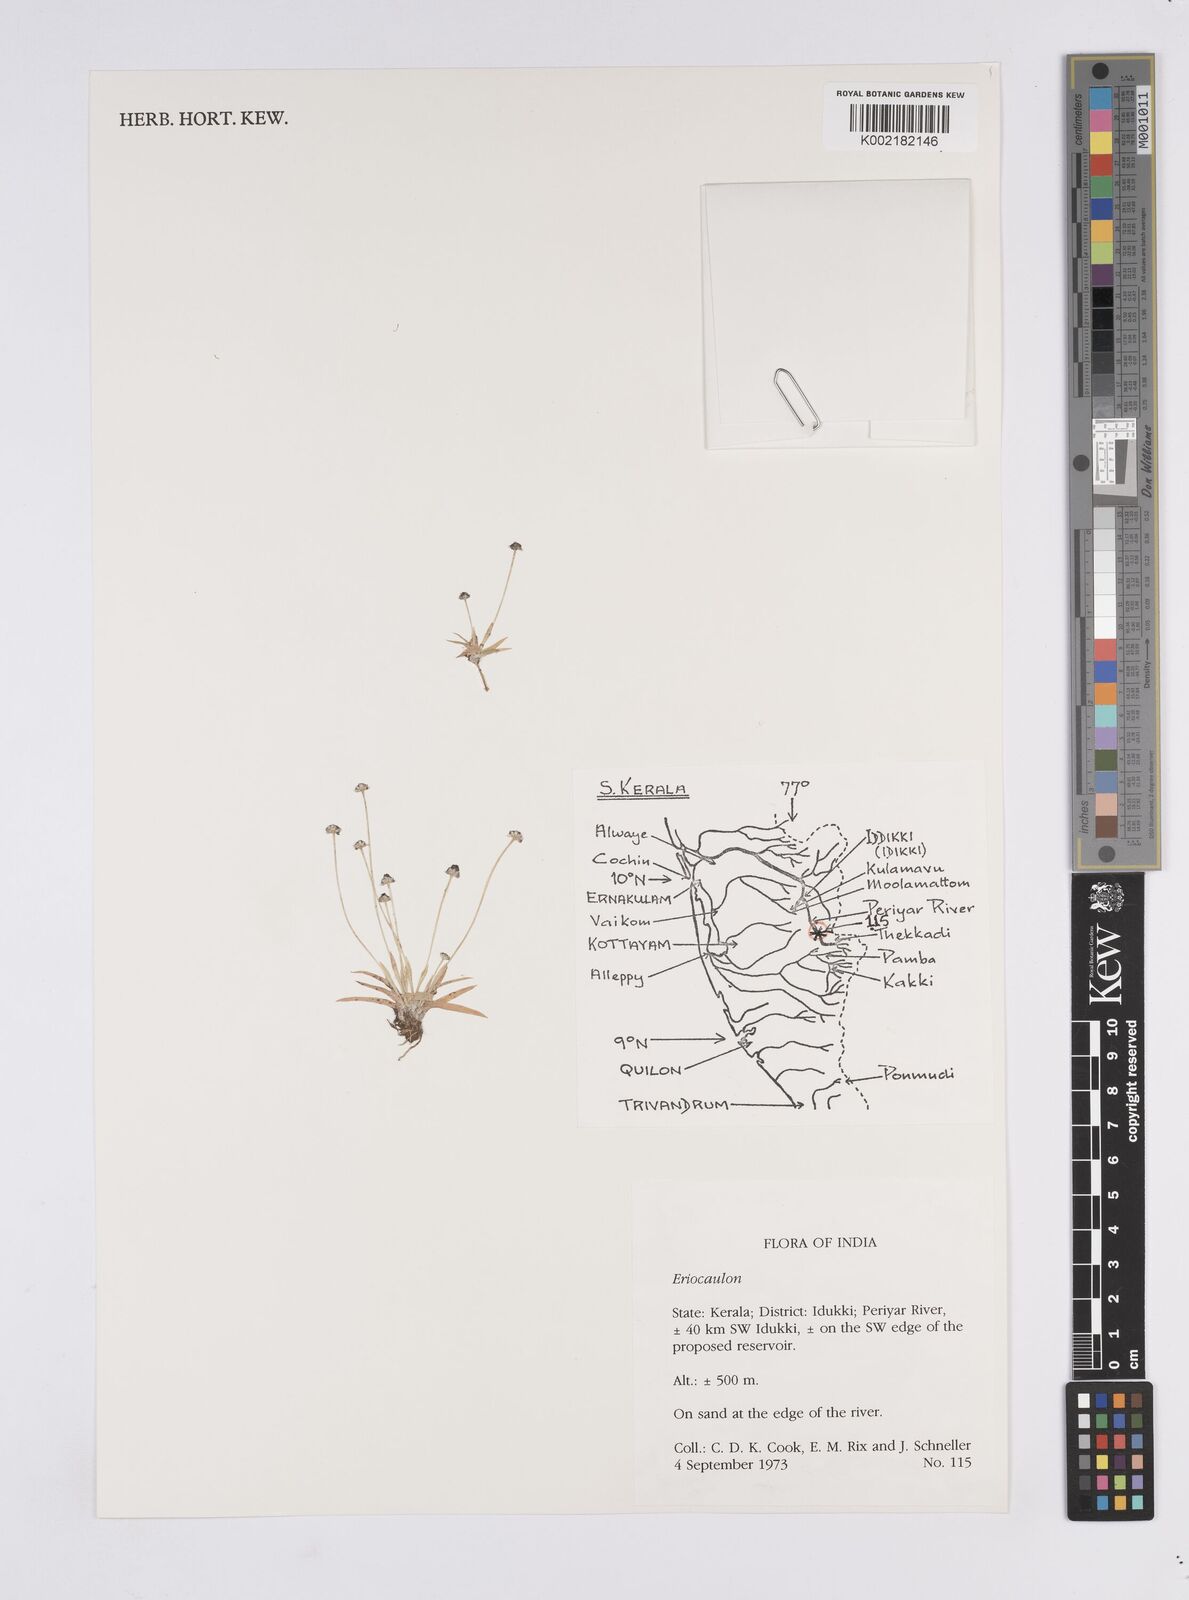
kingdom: Plantae
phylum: Tracheophyta
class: Liliopsida
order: Poales
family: Eriocaulaceae
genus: Eriocaulon
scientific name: Eriocaulon
